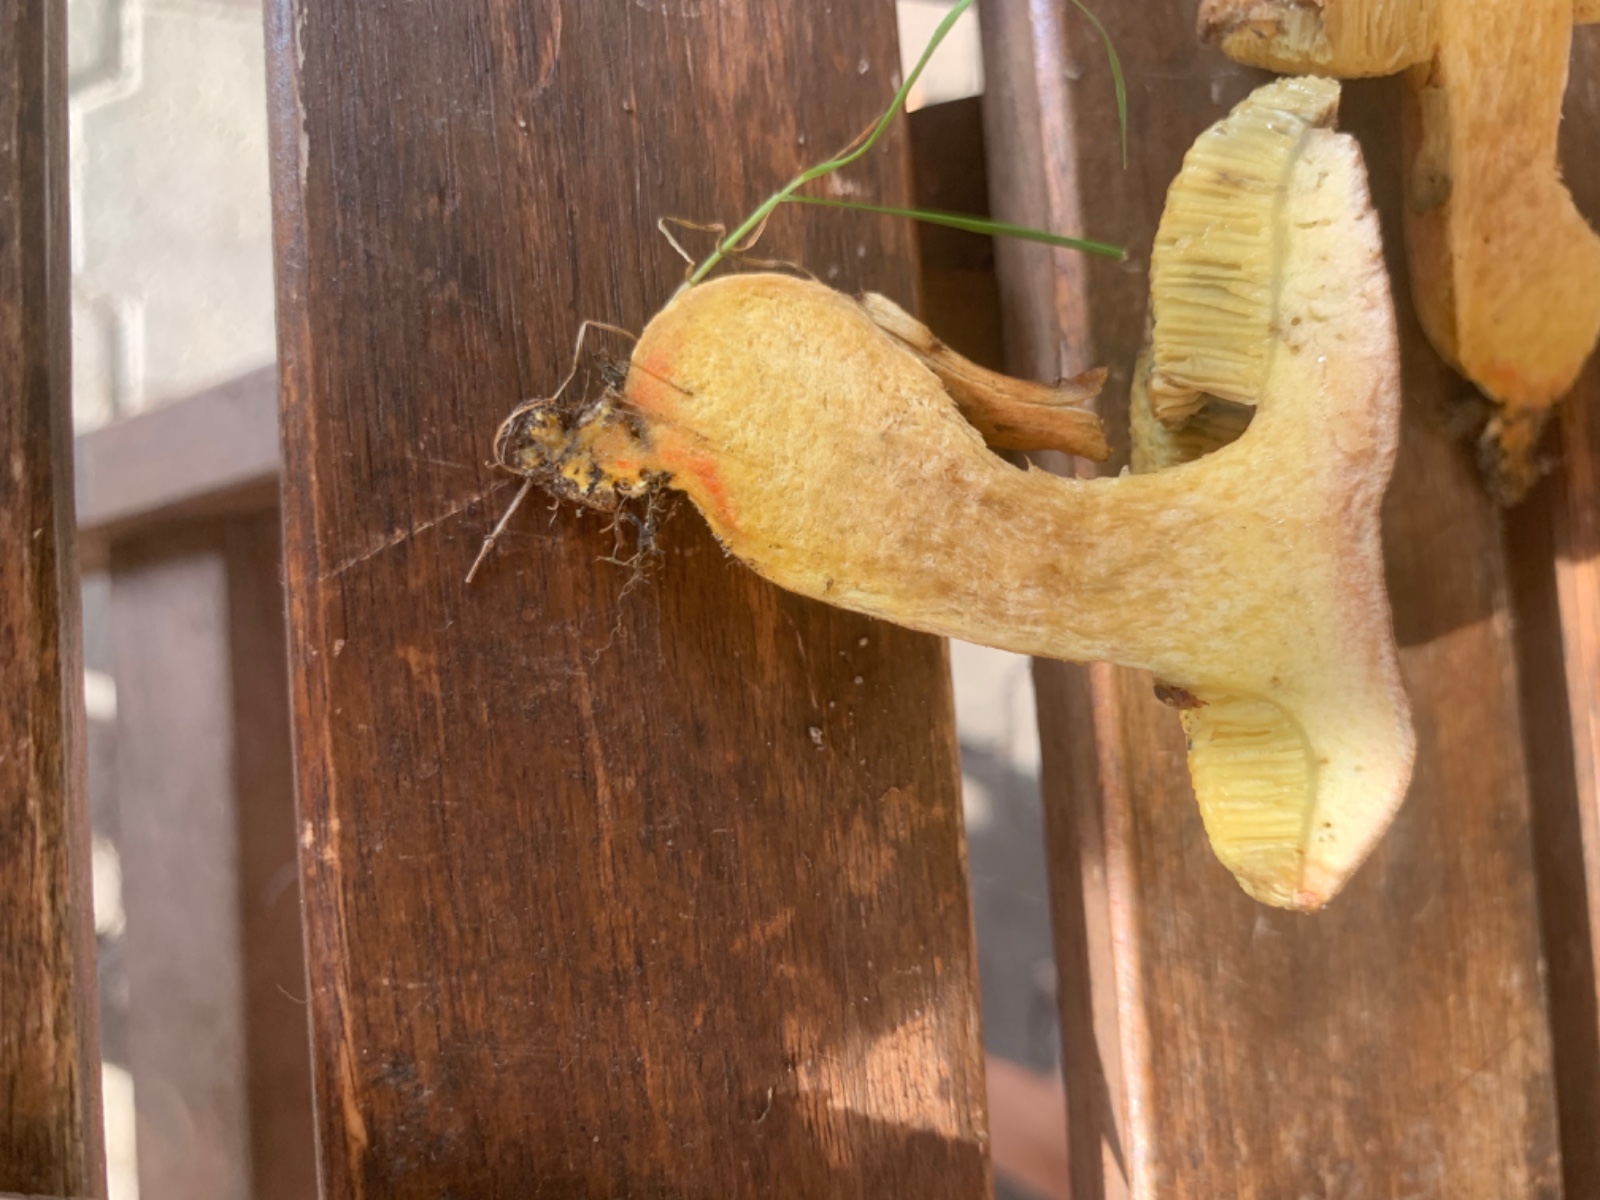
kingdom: Fungi
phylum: Basidiomycota
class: Agaricomycetes
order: Boletales
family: Boletaceae
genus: Hortiboletus
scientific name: Hortiboletus engelii
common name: fersken-rørhat
